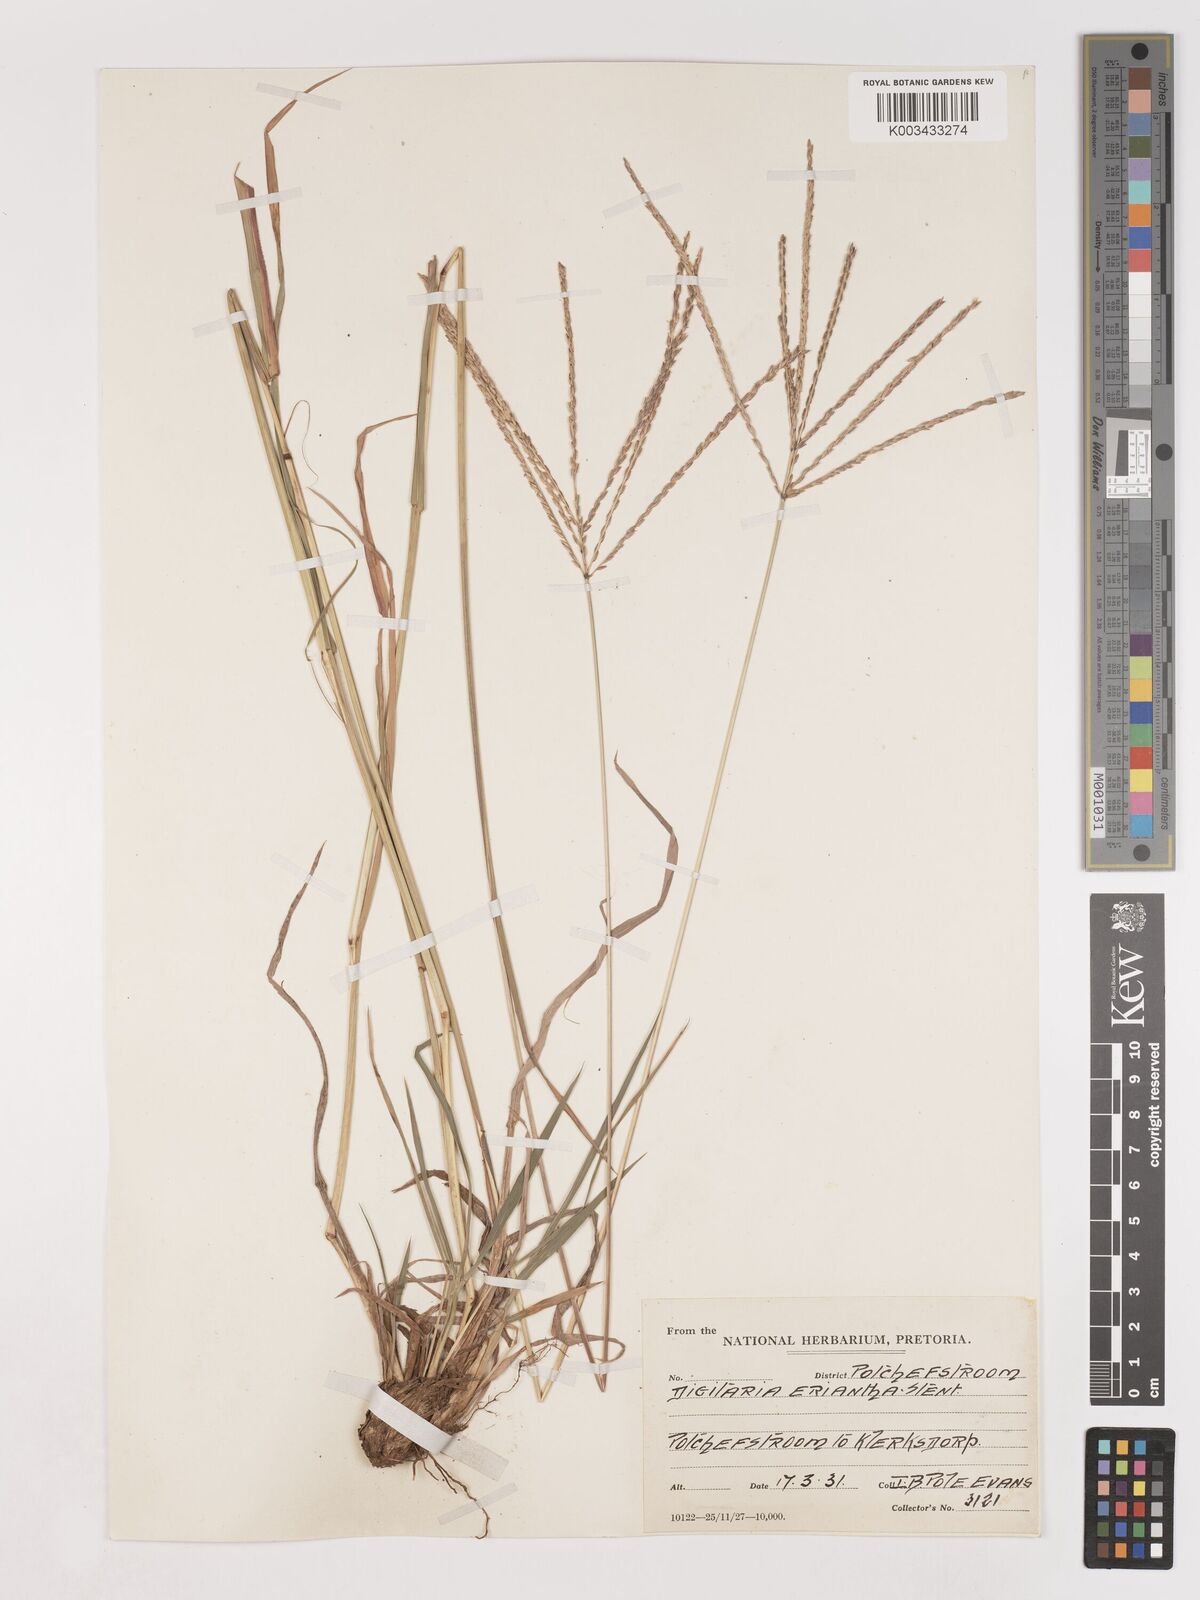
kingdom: Plantae
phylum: Tracheophyta
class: Liliopsida
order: Poales
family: Poaceae
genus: Digitaria
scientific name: Digitaria eriantha
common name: Digitgrass
